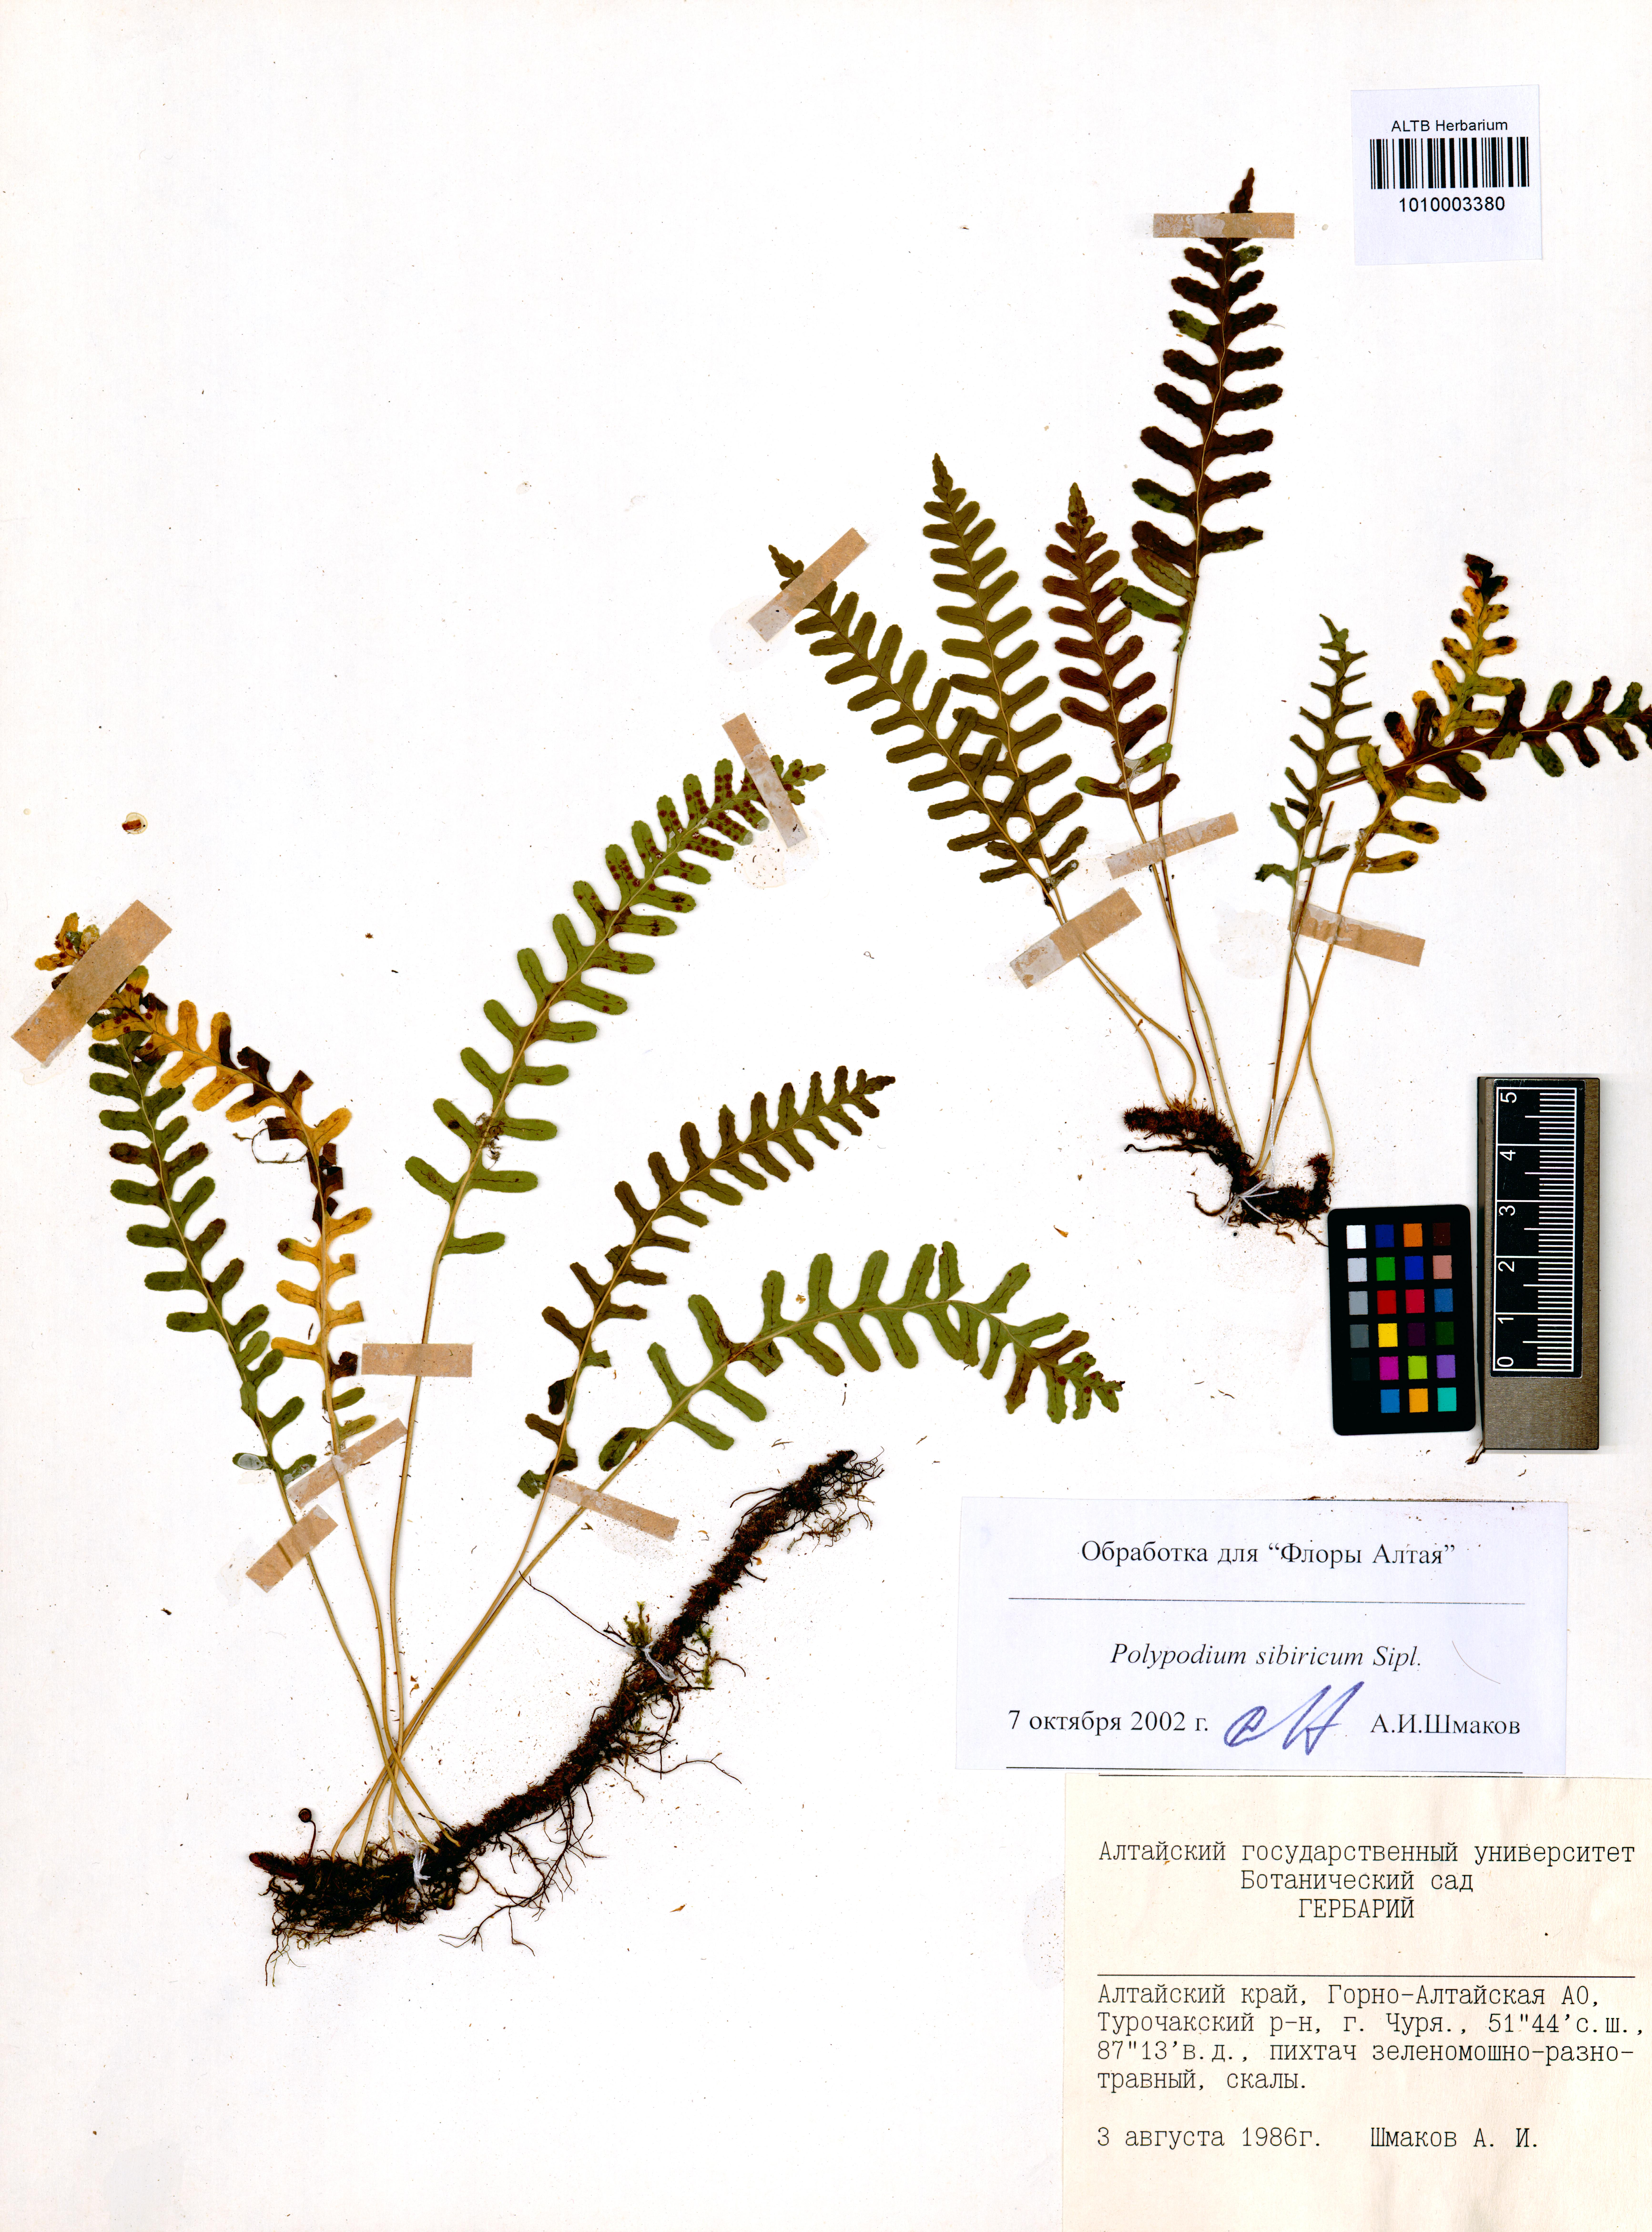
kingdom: Plantae
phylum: Tracheophyta
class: Polypodiopsida
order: Polypodiales
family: Polypodiaceae
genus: Polypodium
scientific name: Polypodium sibiricum
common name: Siberian polypody
